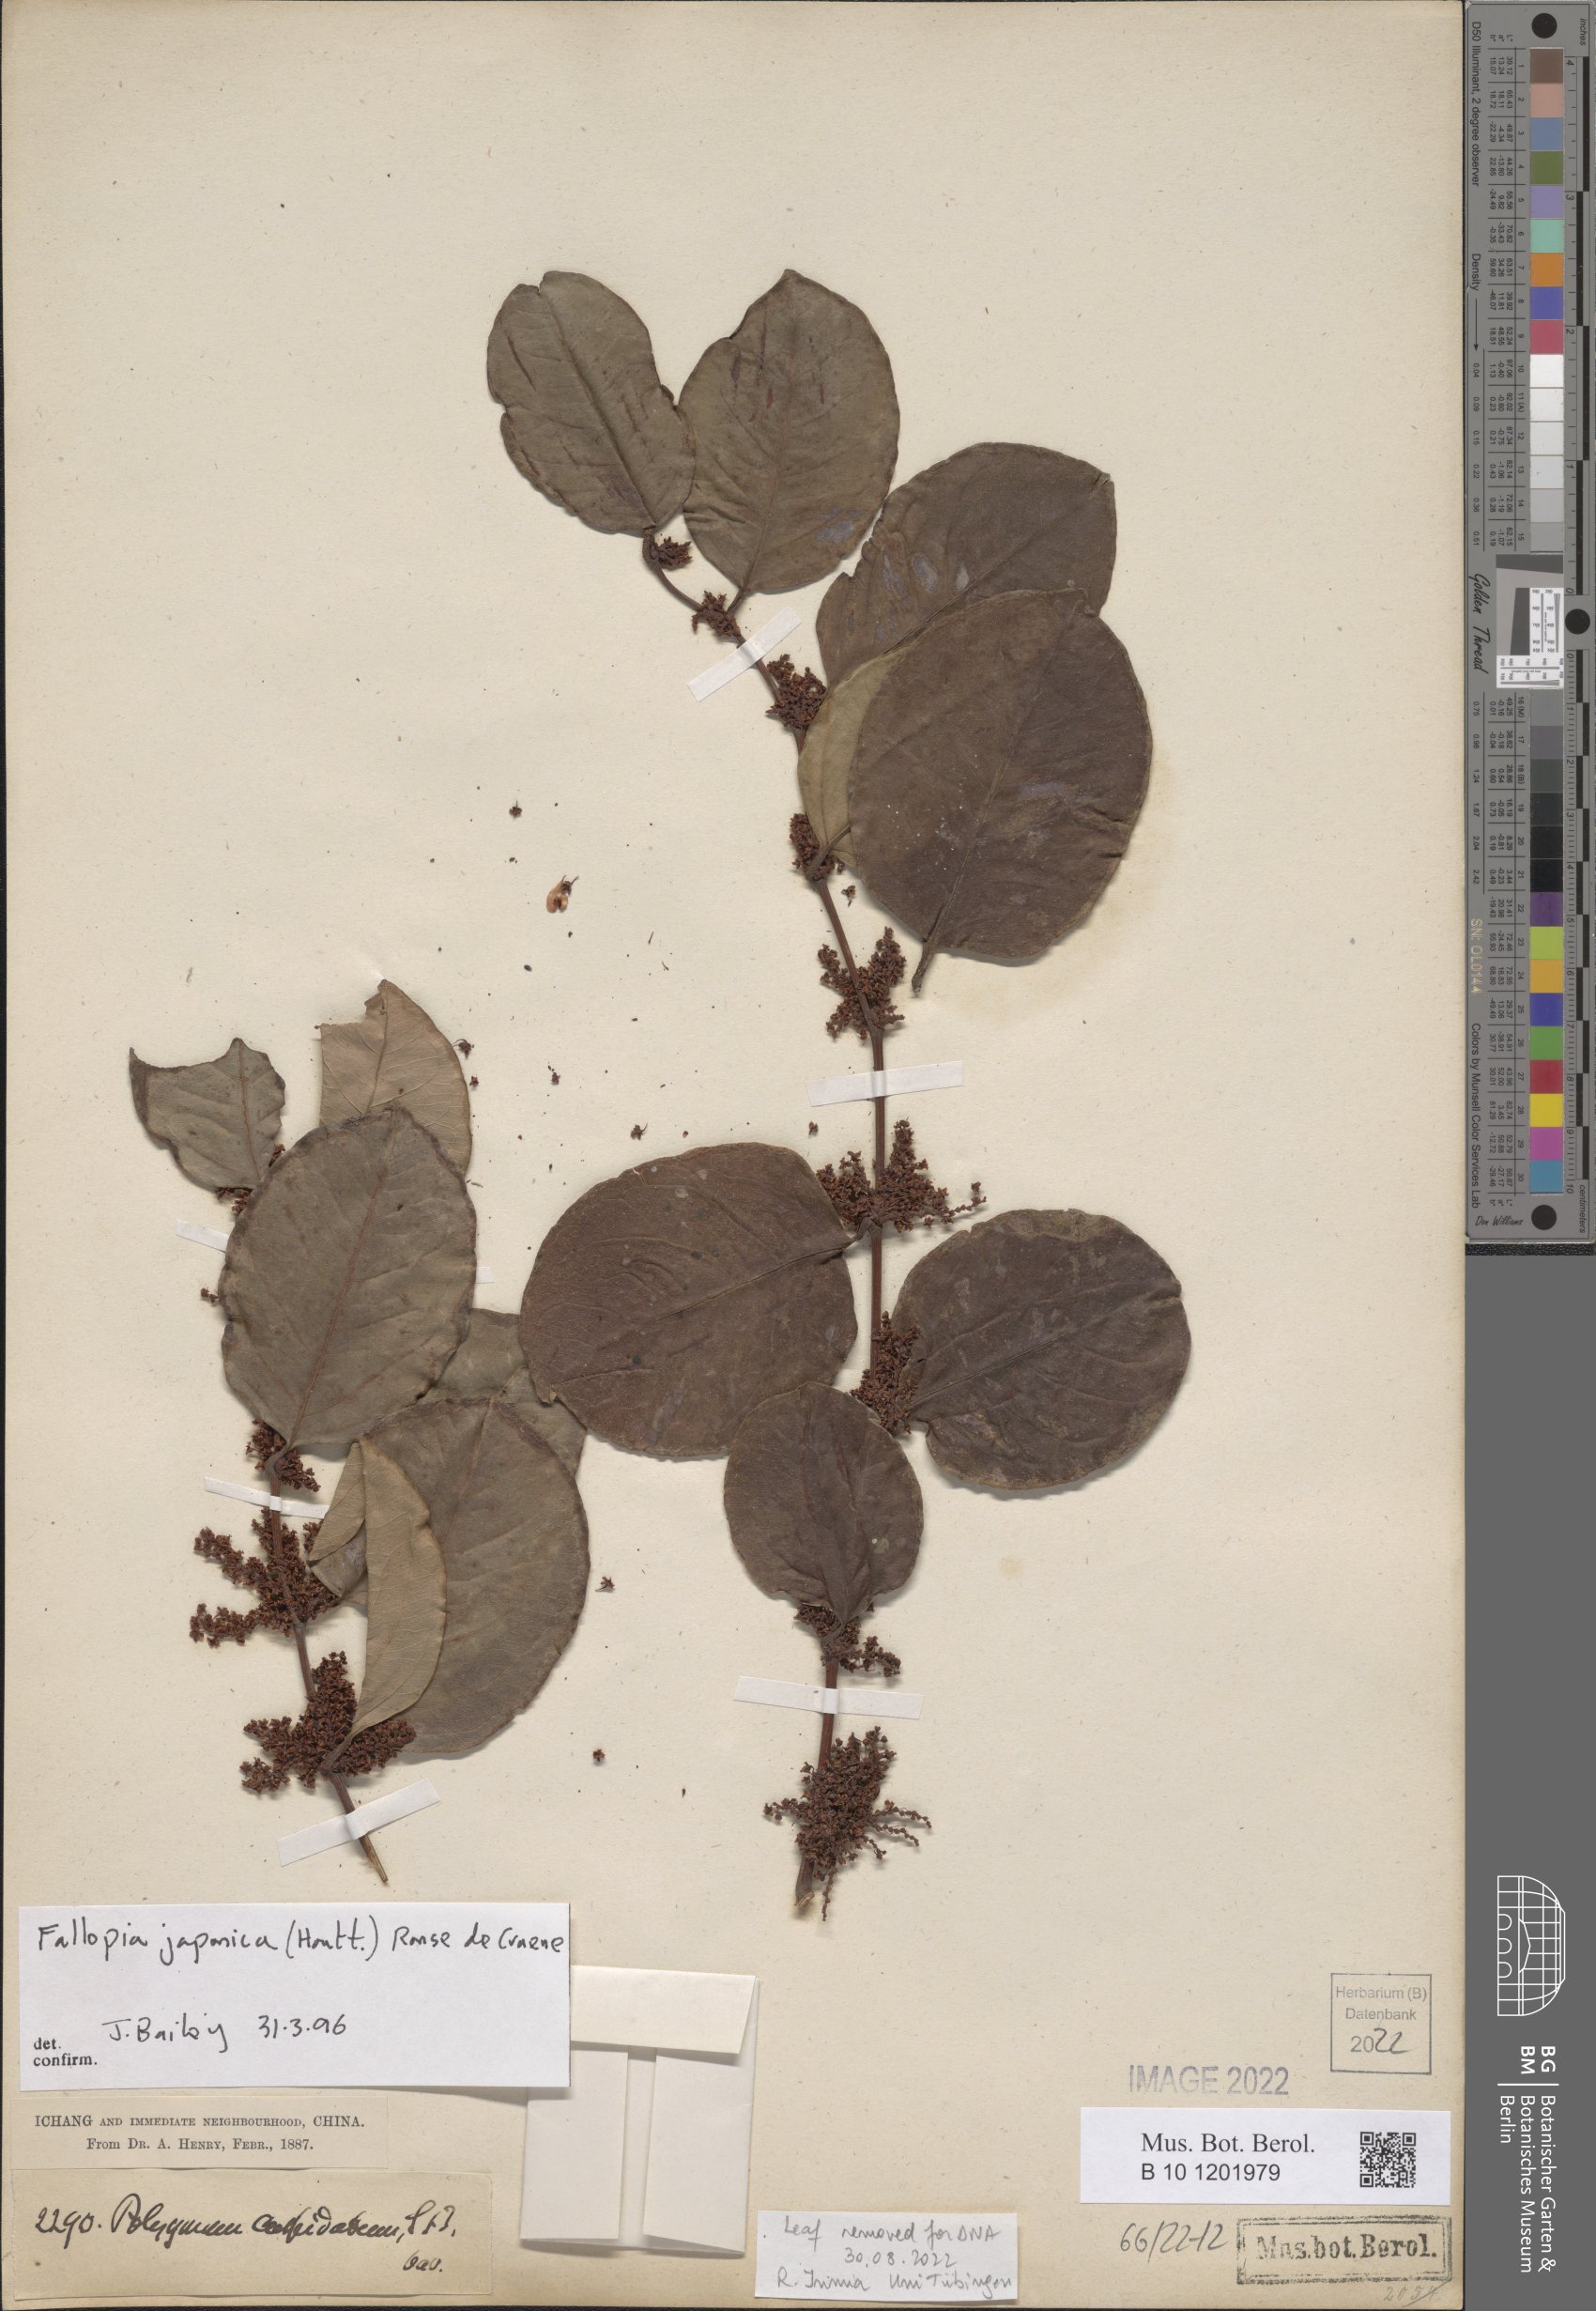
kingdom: Plantae
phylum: Tracheophyta
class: Magnoliopsida
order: Caryophyllales
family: Polygonaceae
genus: Reynoutria
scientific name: Reynoutria japonica
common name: Japanese knotweed
